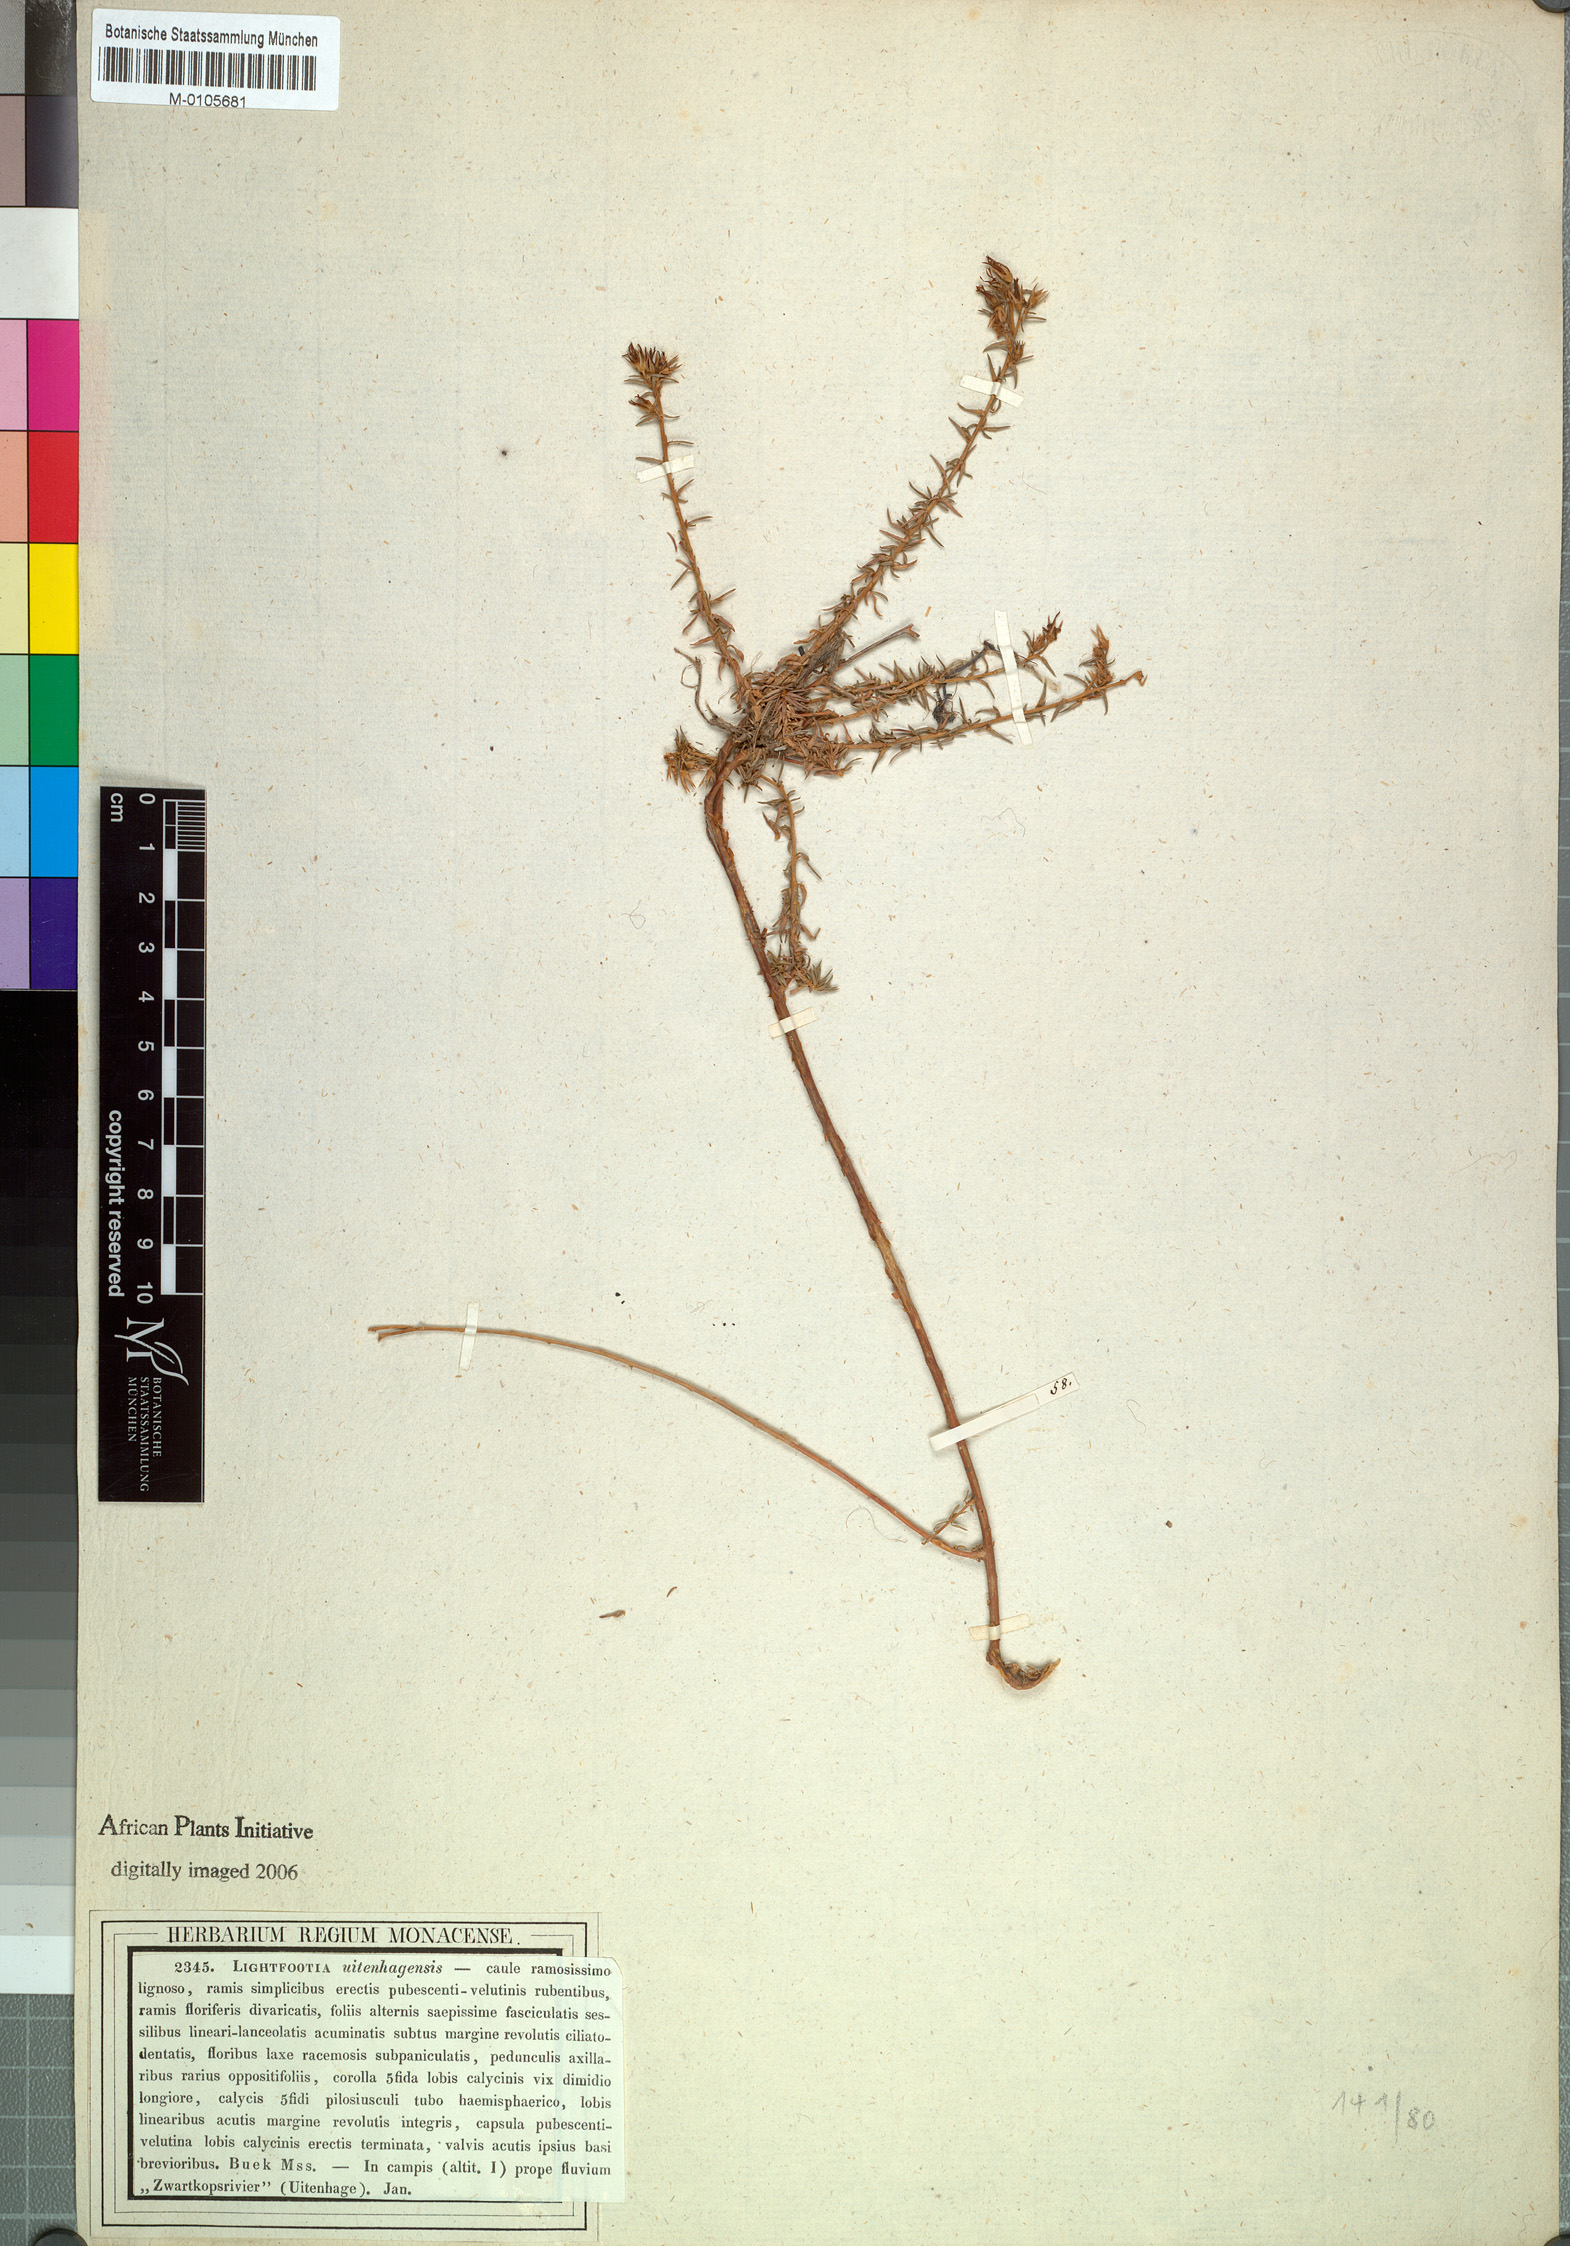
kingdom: Plantae
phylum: Tracheophyta
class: Magnoliopsida
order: Asterales
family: Campanulaceae
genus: Wahlenbergia
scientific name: Wahlenbergia thunbergii
